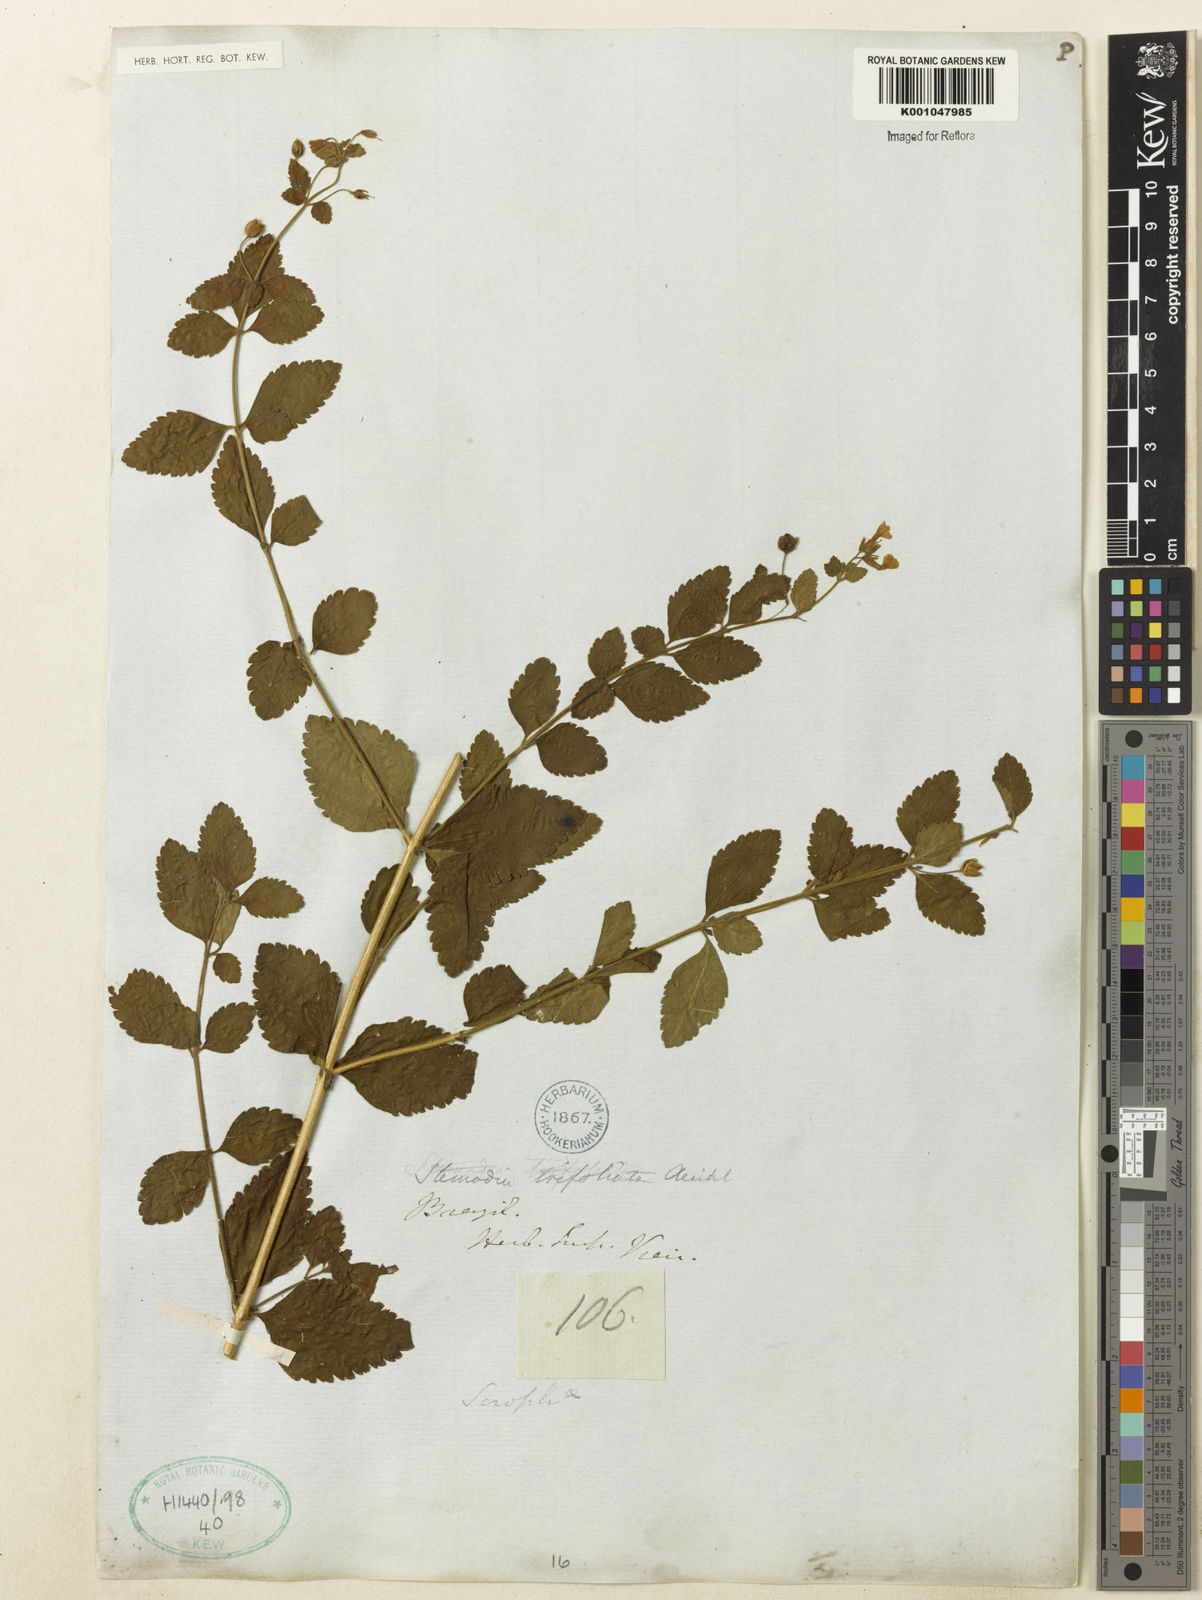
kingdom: Plantae
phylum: Tracheophyta
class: Magnoliopsida
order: Lamiales
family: Plantaginaceae
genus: Stemodia
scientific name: Stemodia trifoliata
